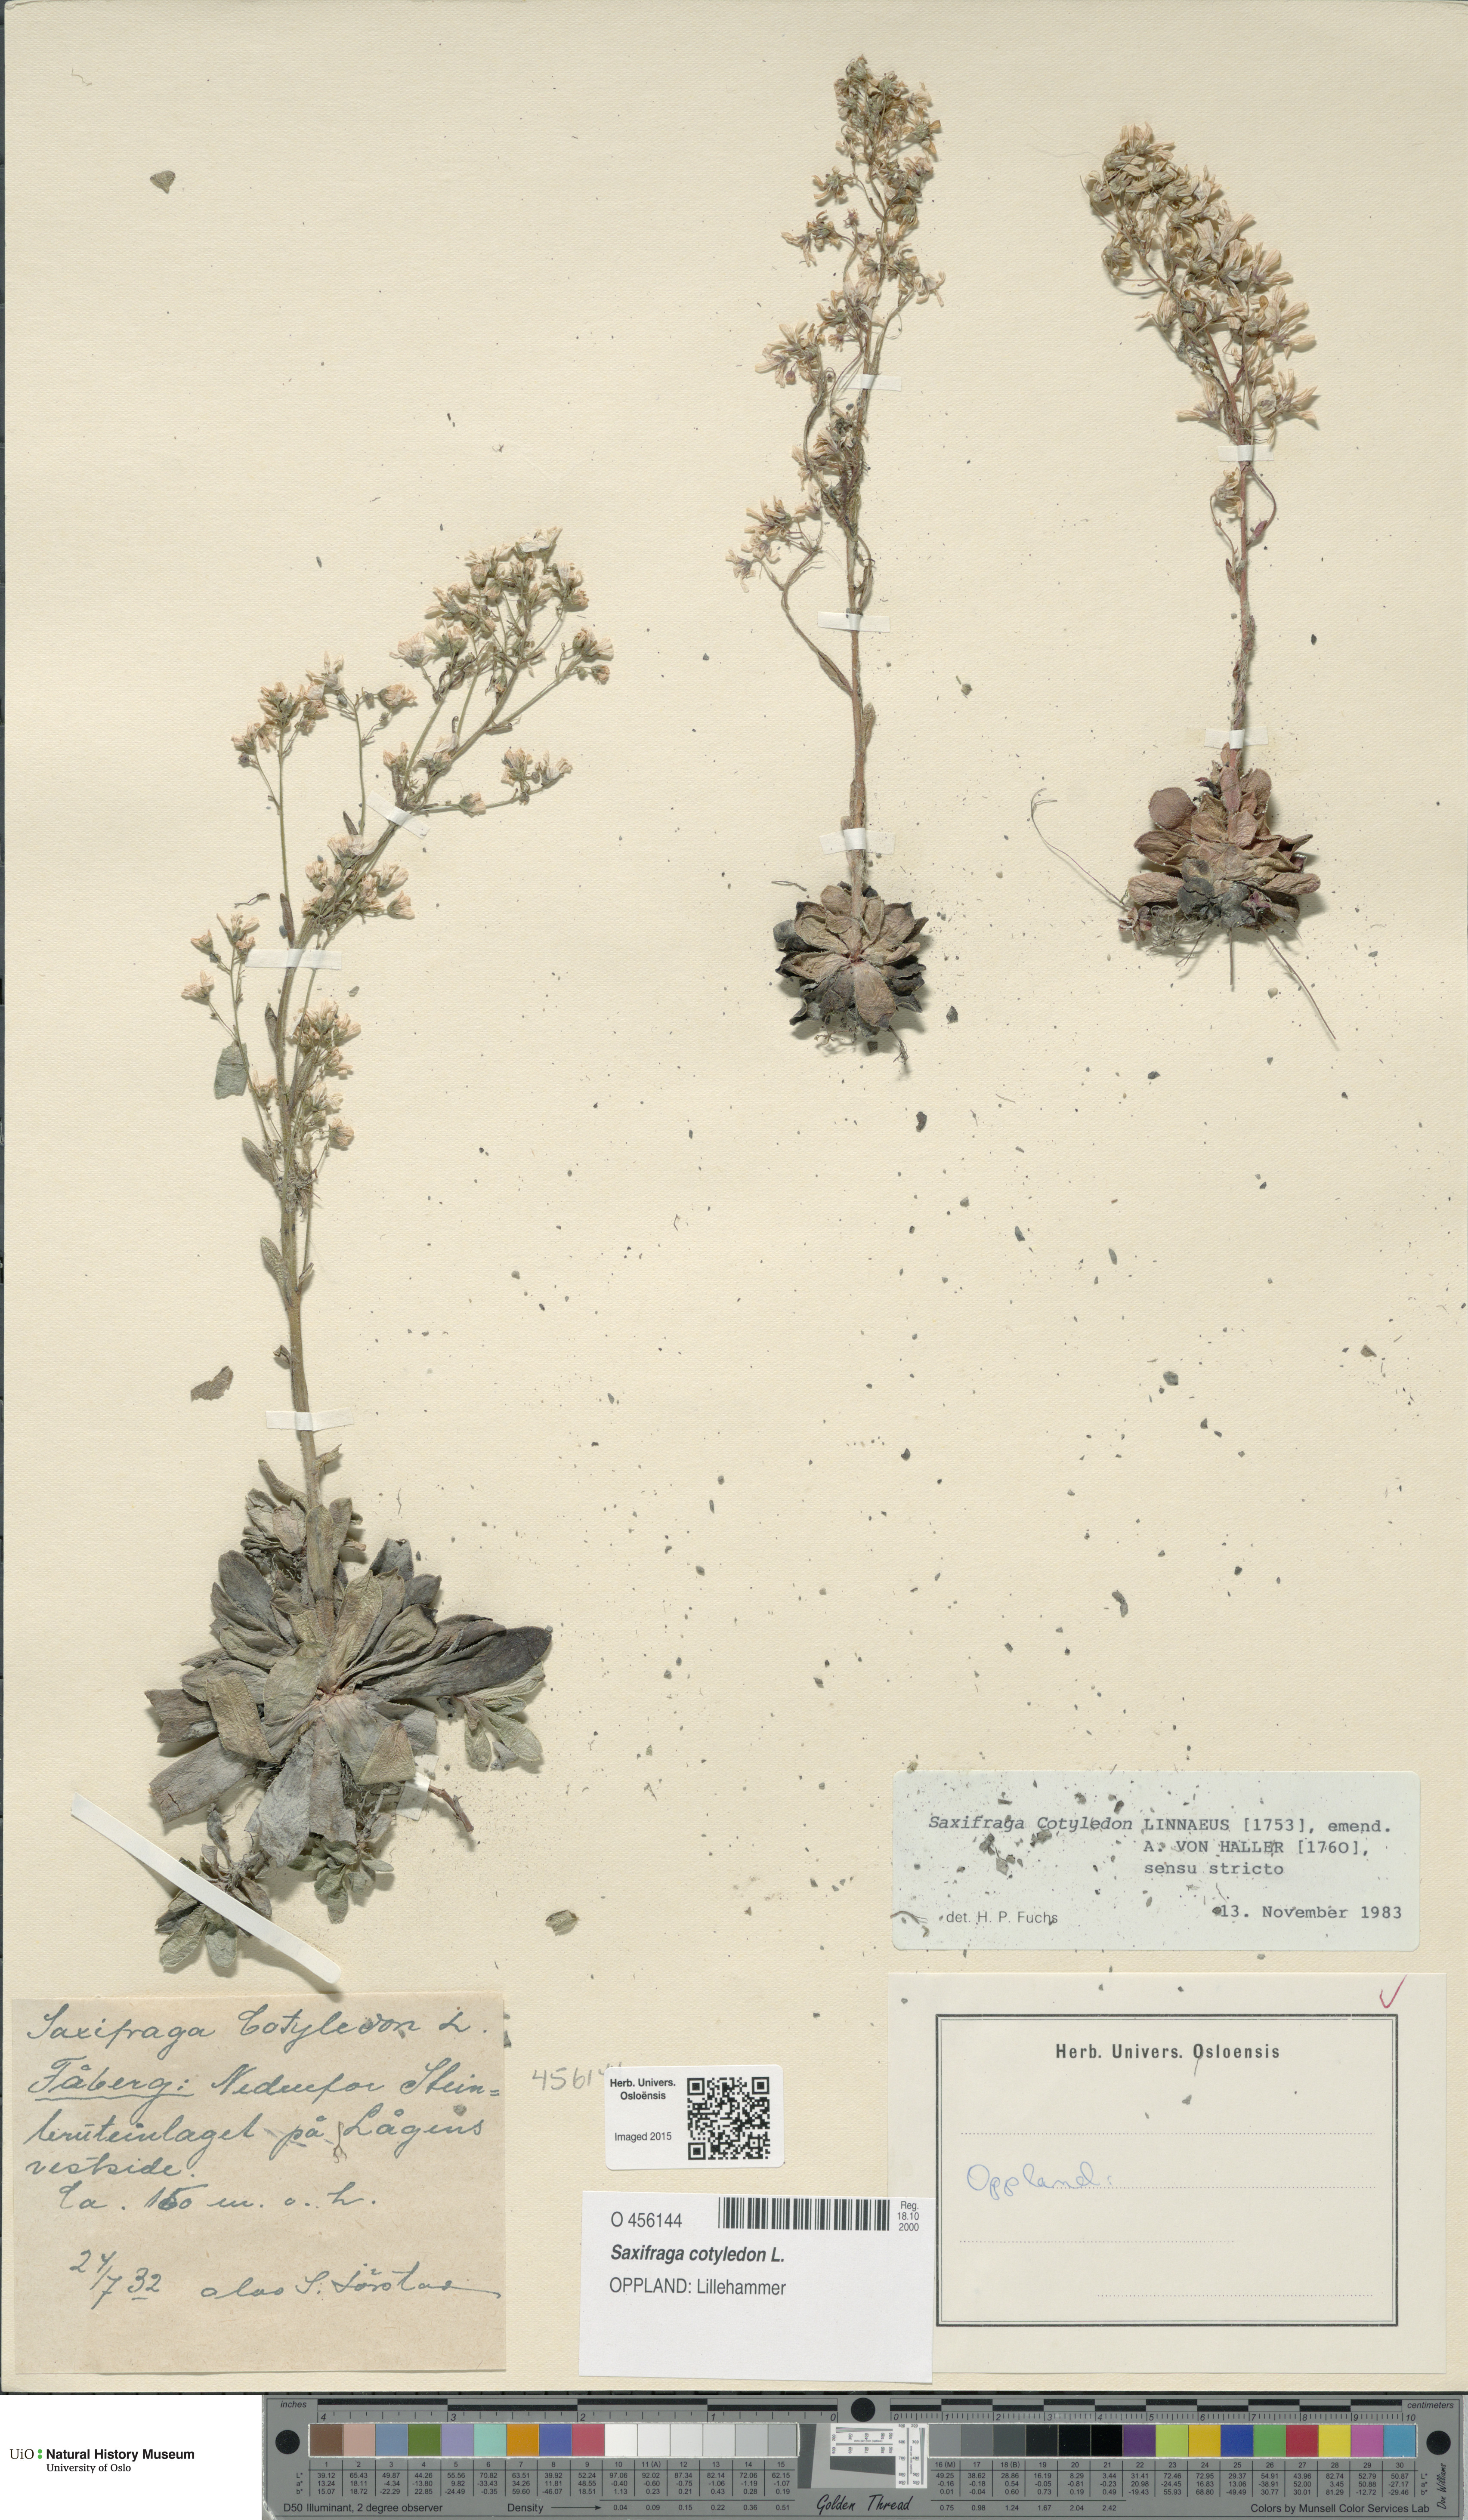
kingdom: Plantae
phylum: Tracheophyta
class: Magnoliopsida
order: Saxifragales
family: Saxifragaceae
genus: Saxifraga
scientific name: Saxifraga cotyledon
